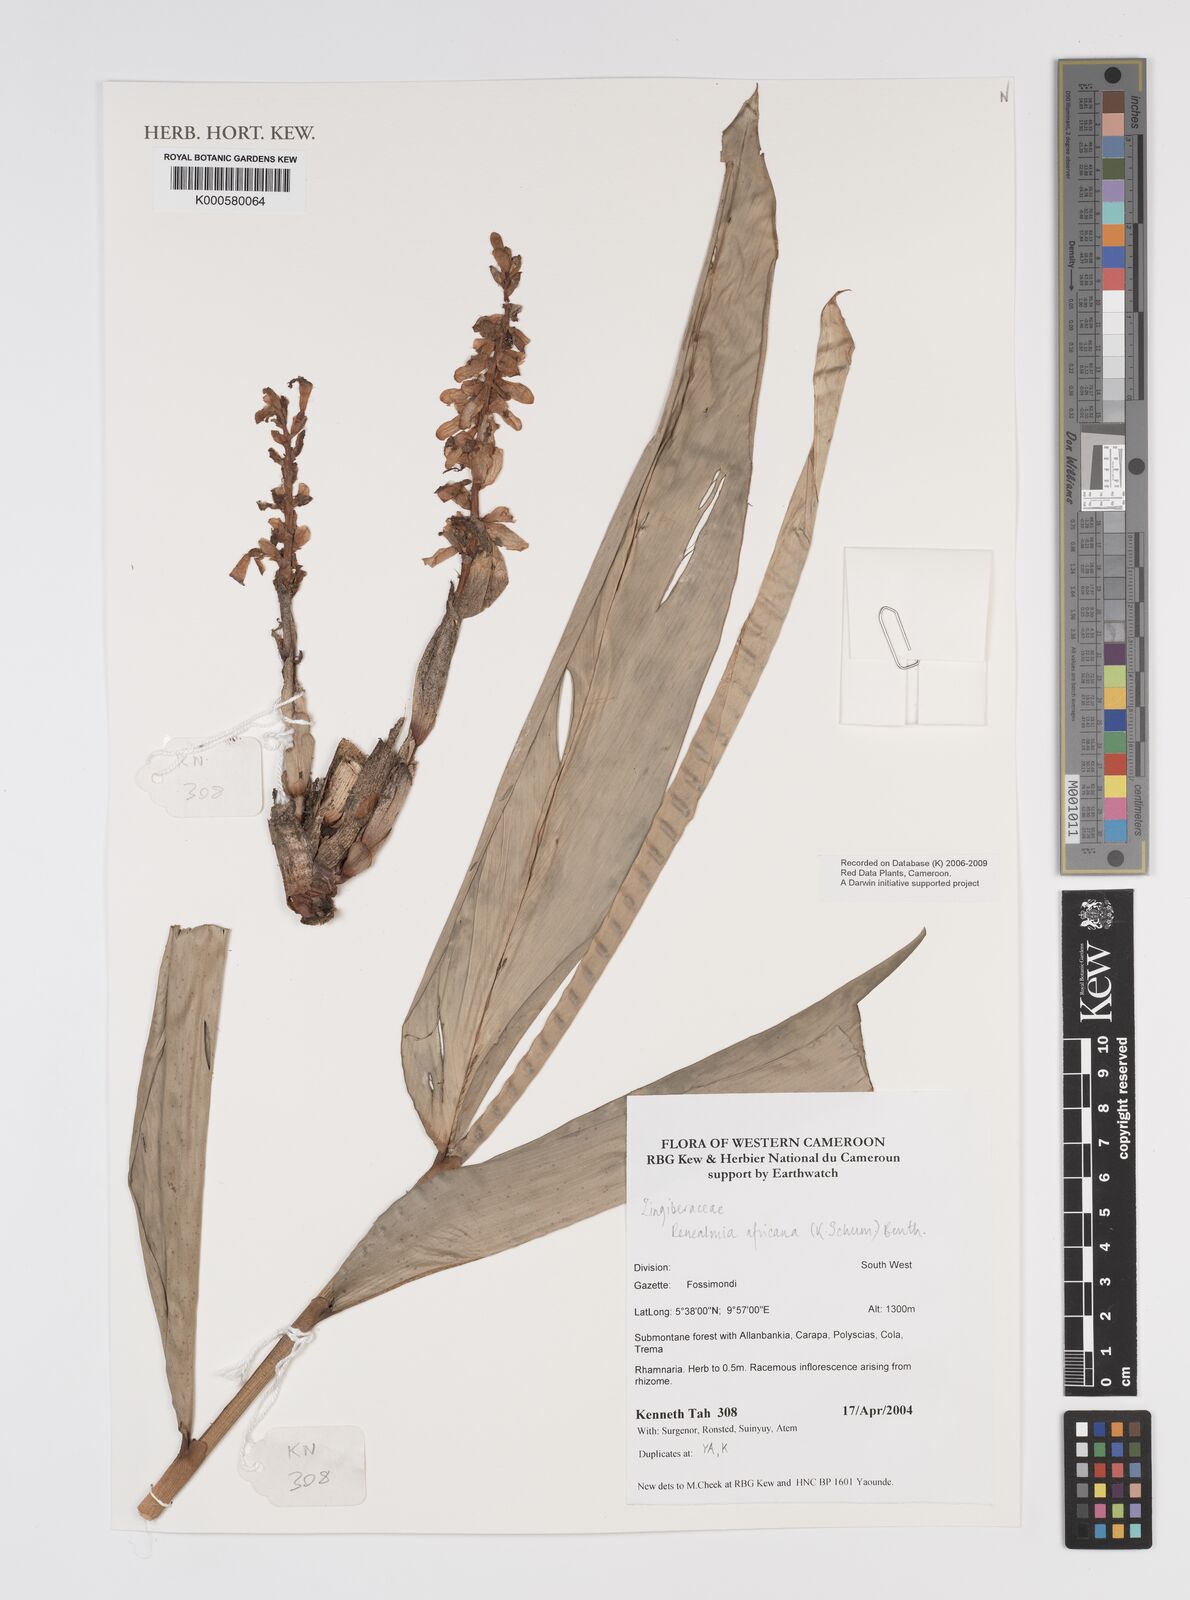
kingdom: Plantae
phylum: Tracheophyta
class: Liliopsida
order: Zingiberales
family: Zingiberaceae
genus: Renealmia
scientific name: Renealmia africana
